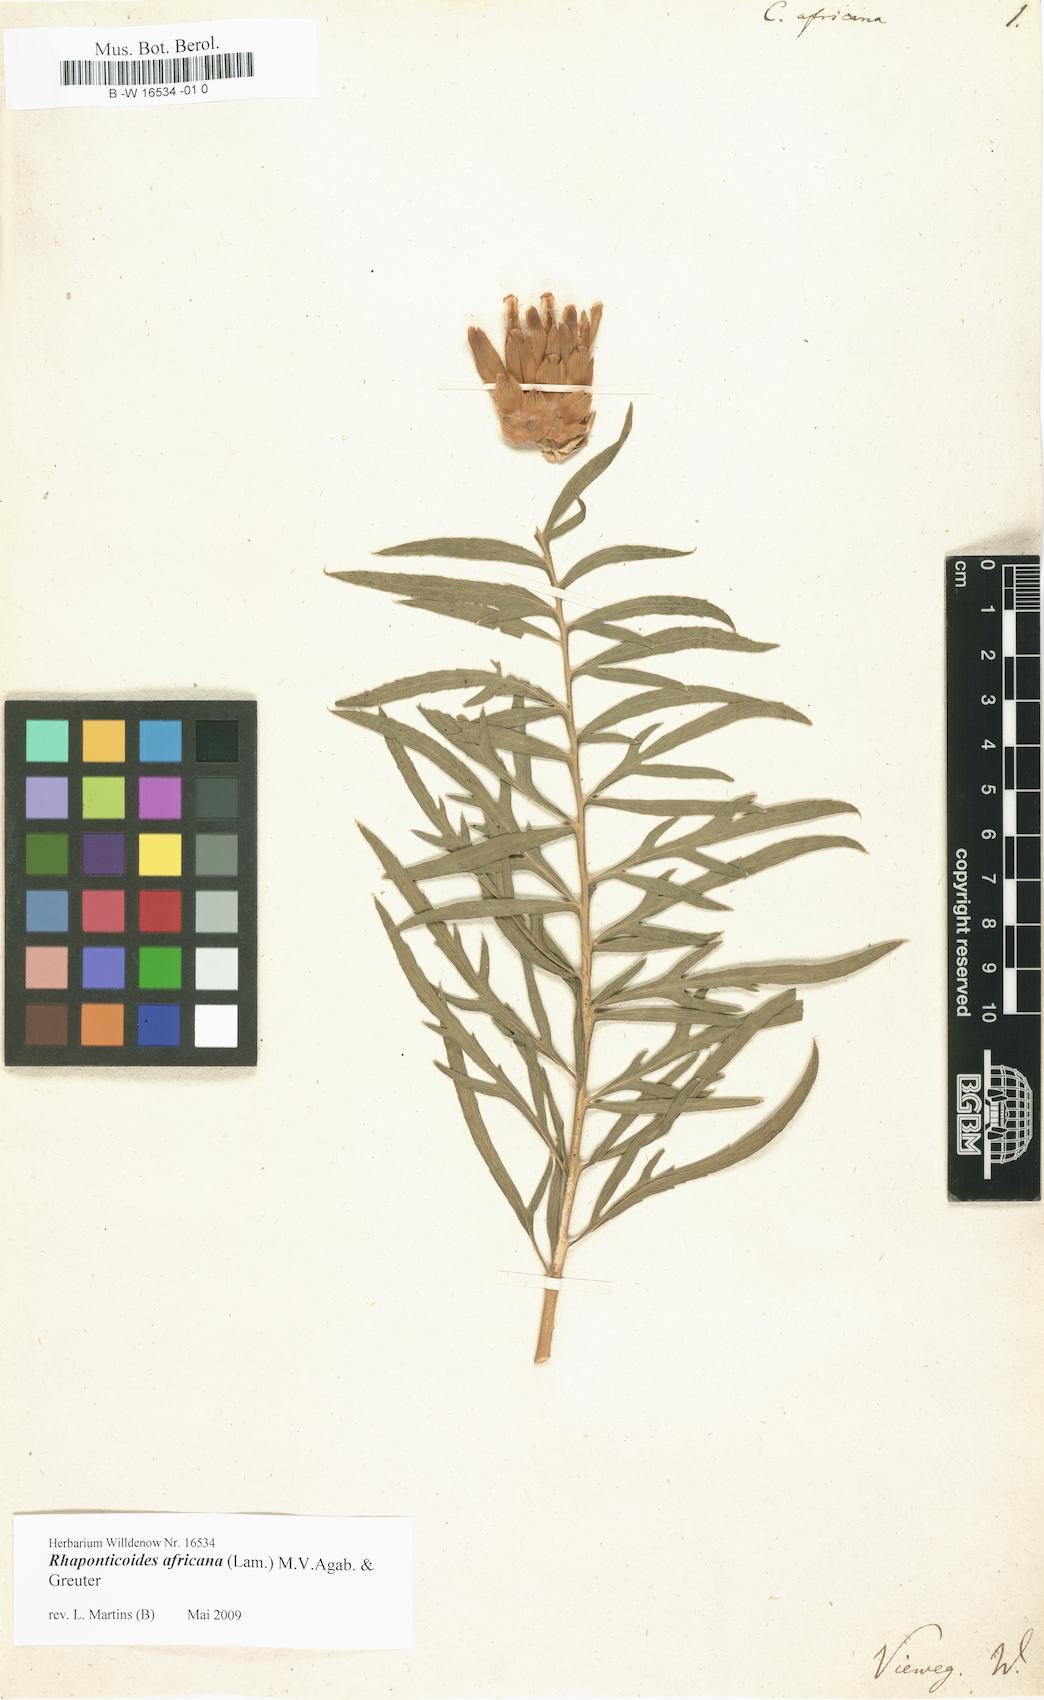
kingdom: Plantae
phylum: Tracheophyta
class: Magnoliopsida
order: Asterales
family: Asteraceae
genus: Rhaponticoides
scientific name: Rhaponticoides africana
